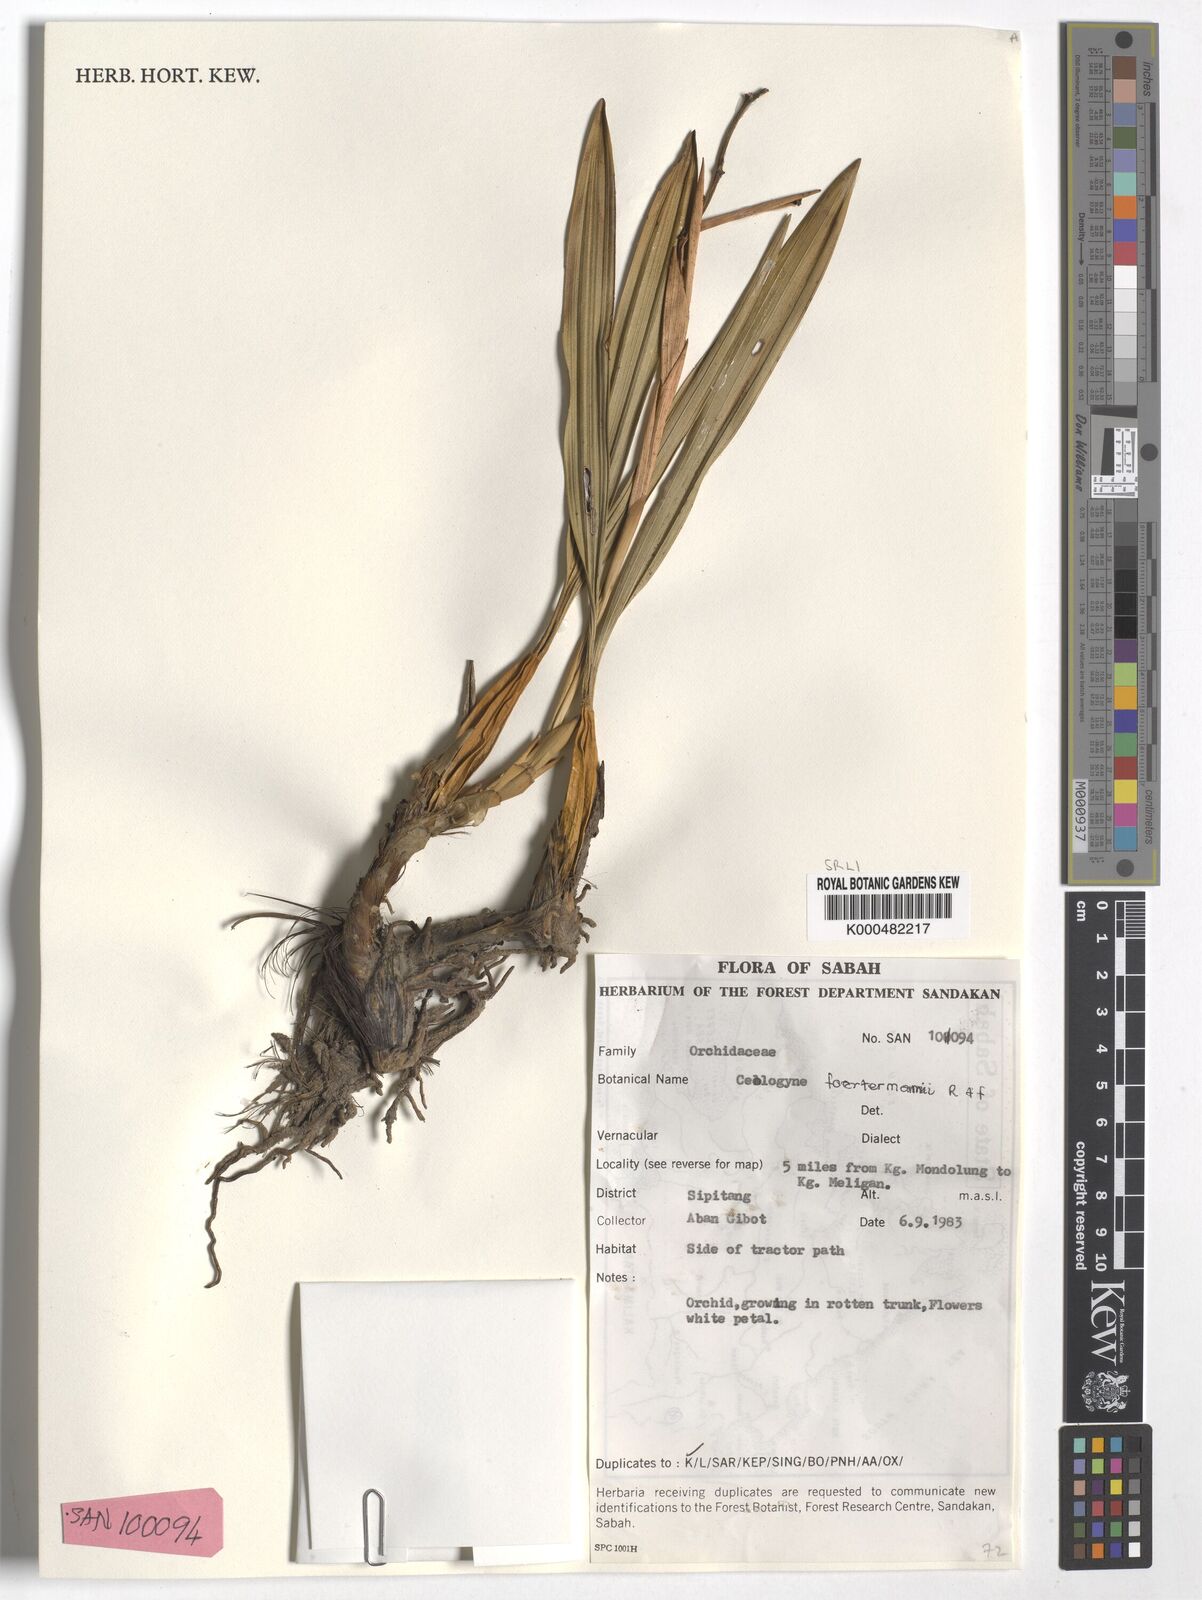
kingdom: Plantae
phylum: Tracheophyta
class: Liliopsida
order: Asparagales
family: Orchidaceae
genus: Coelogyne
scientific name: Coelogyne
